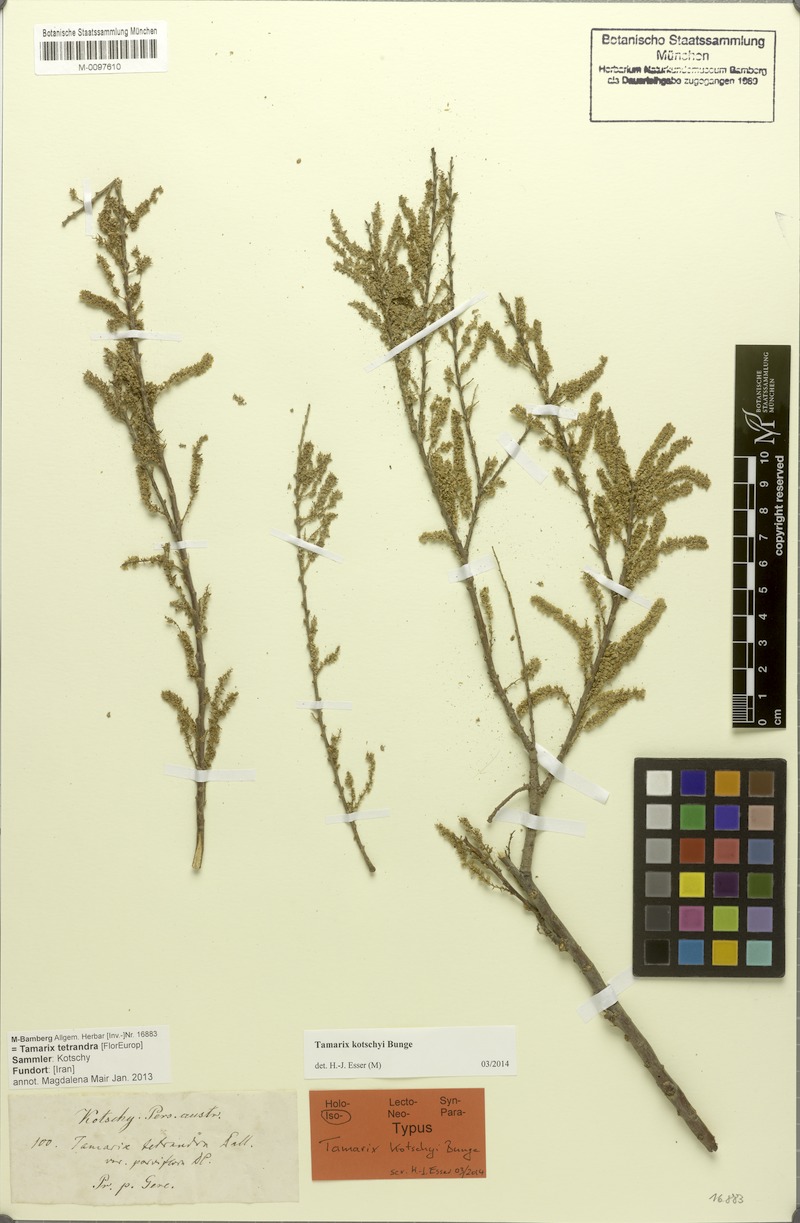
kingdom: Plantae
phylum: Tracheophyta
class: Magnoliopsida
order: Caryophyllales
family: Tamaricaceae
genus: Tamarix
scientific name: Tamarix kotschyi
